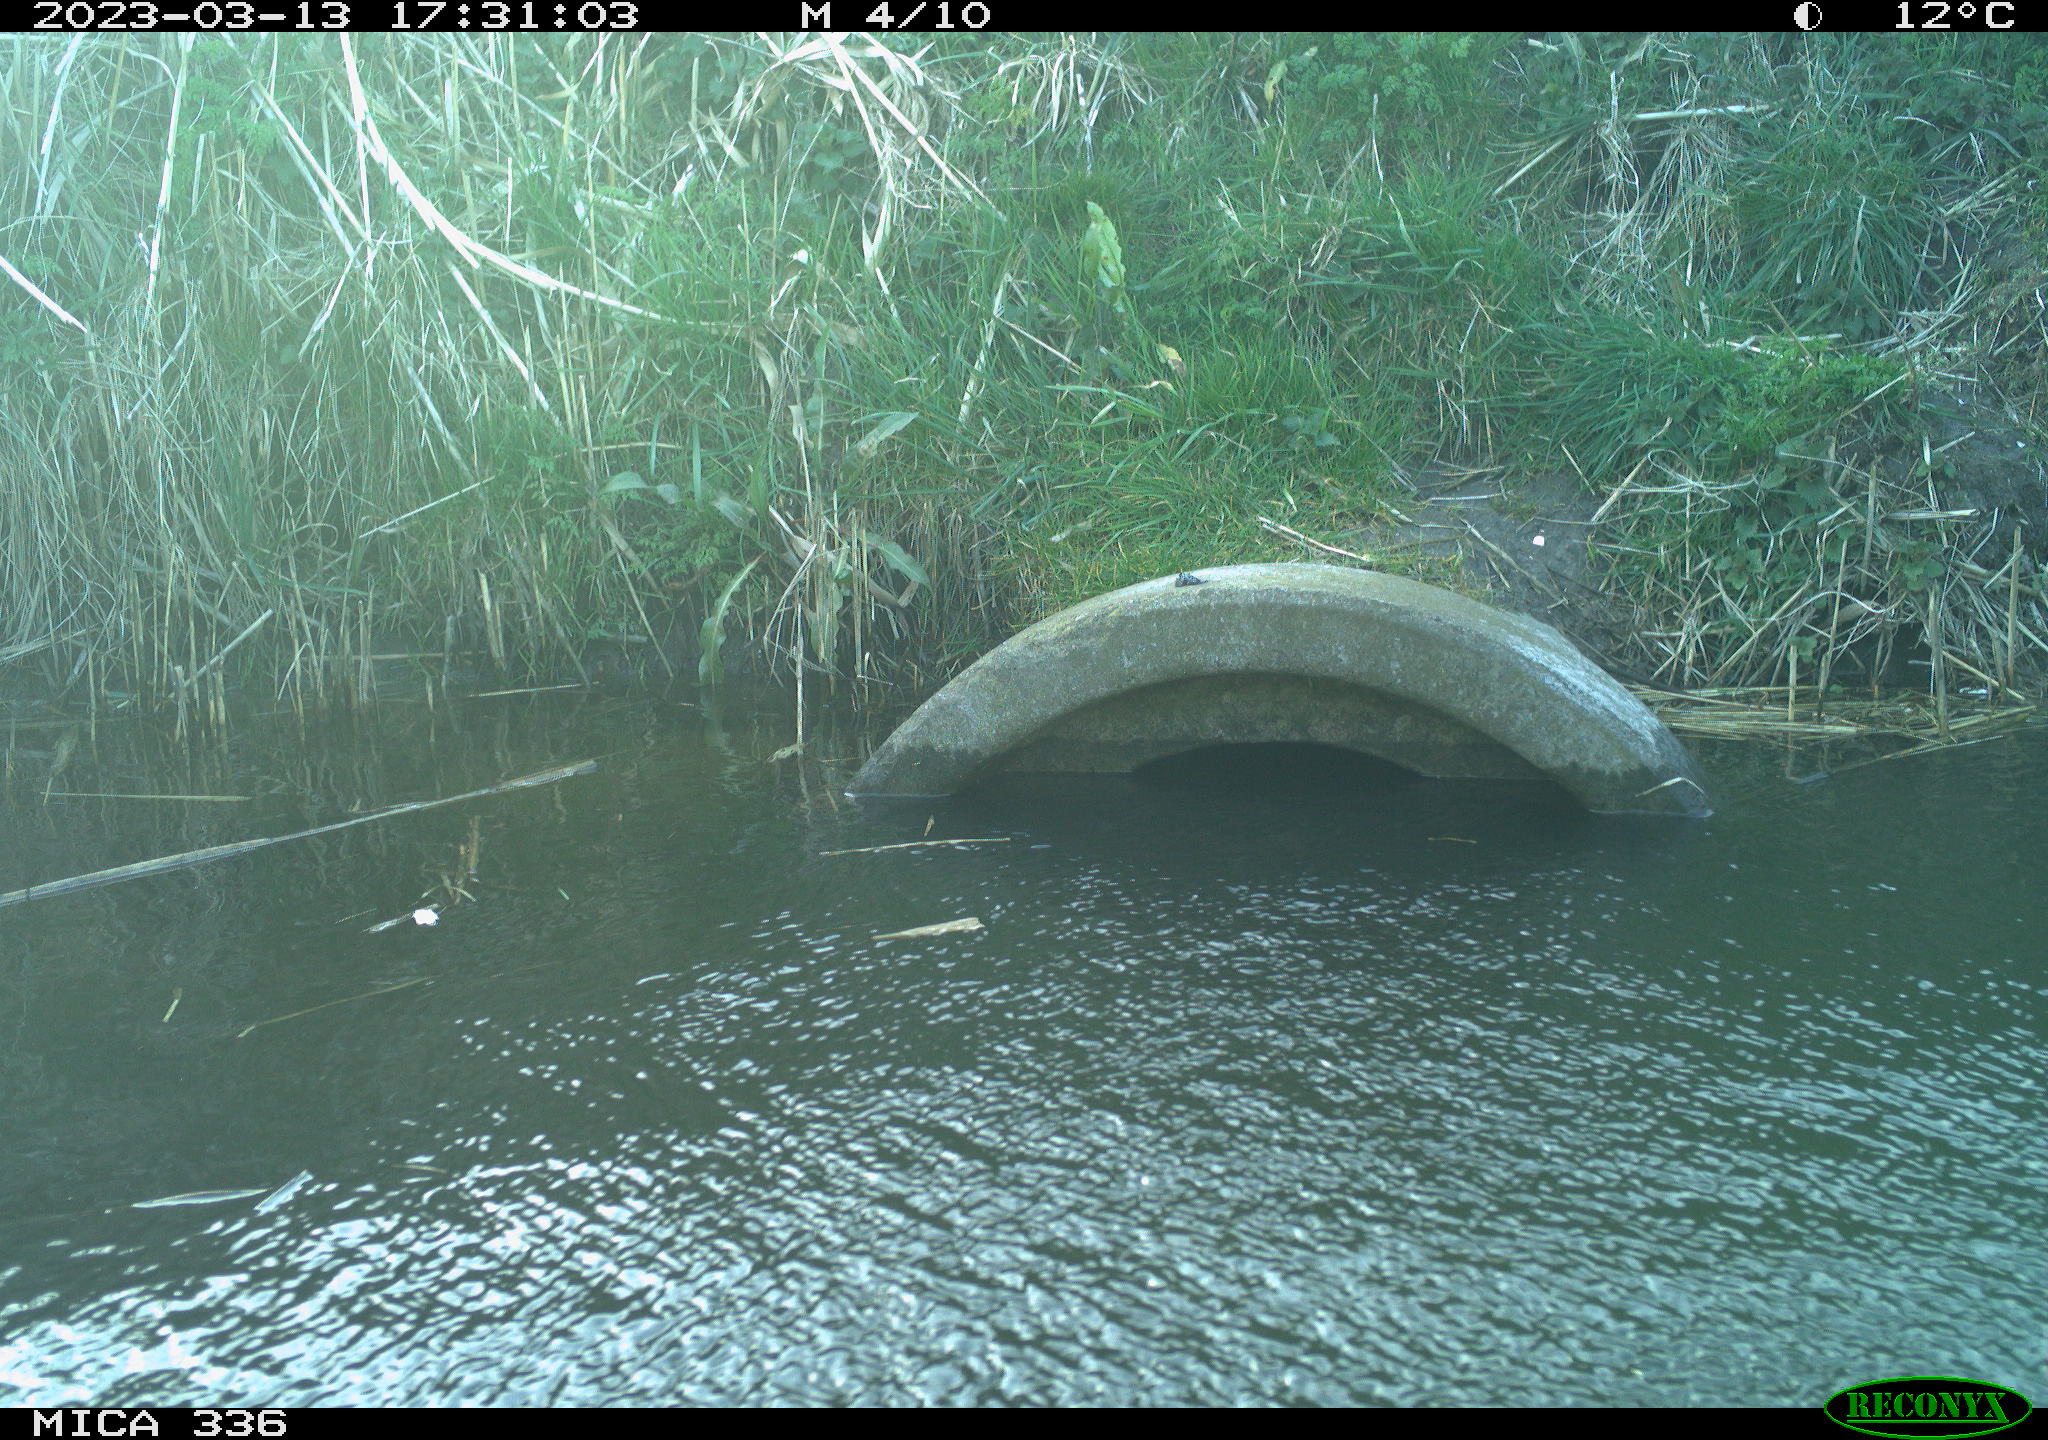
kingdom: Animalia
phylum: Chordata
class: Aves
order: Gruiformes
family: Rallidae
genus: Gallinula
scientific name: Gallinula chloropus
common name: Common moorhen
